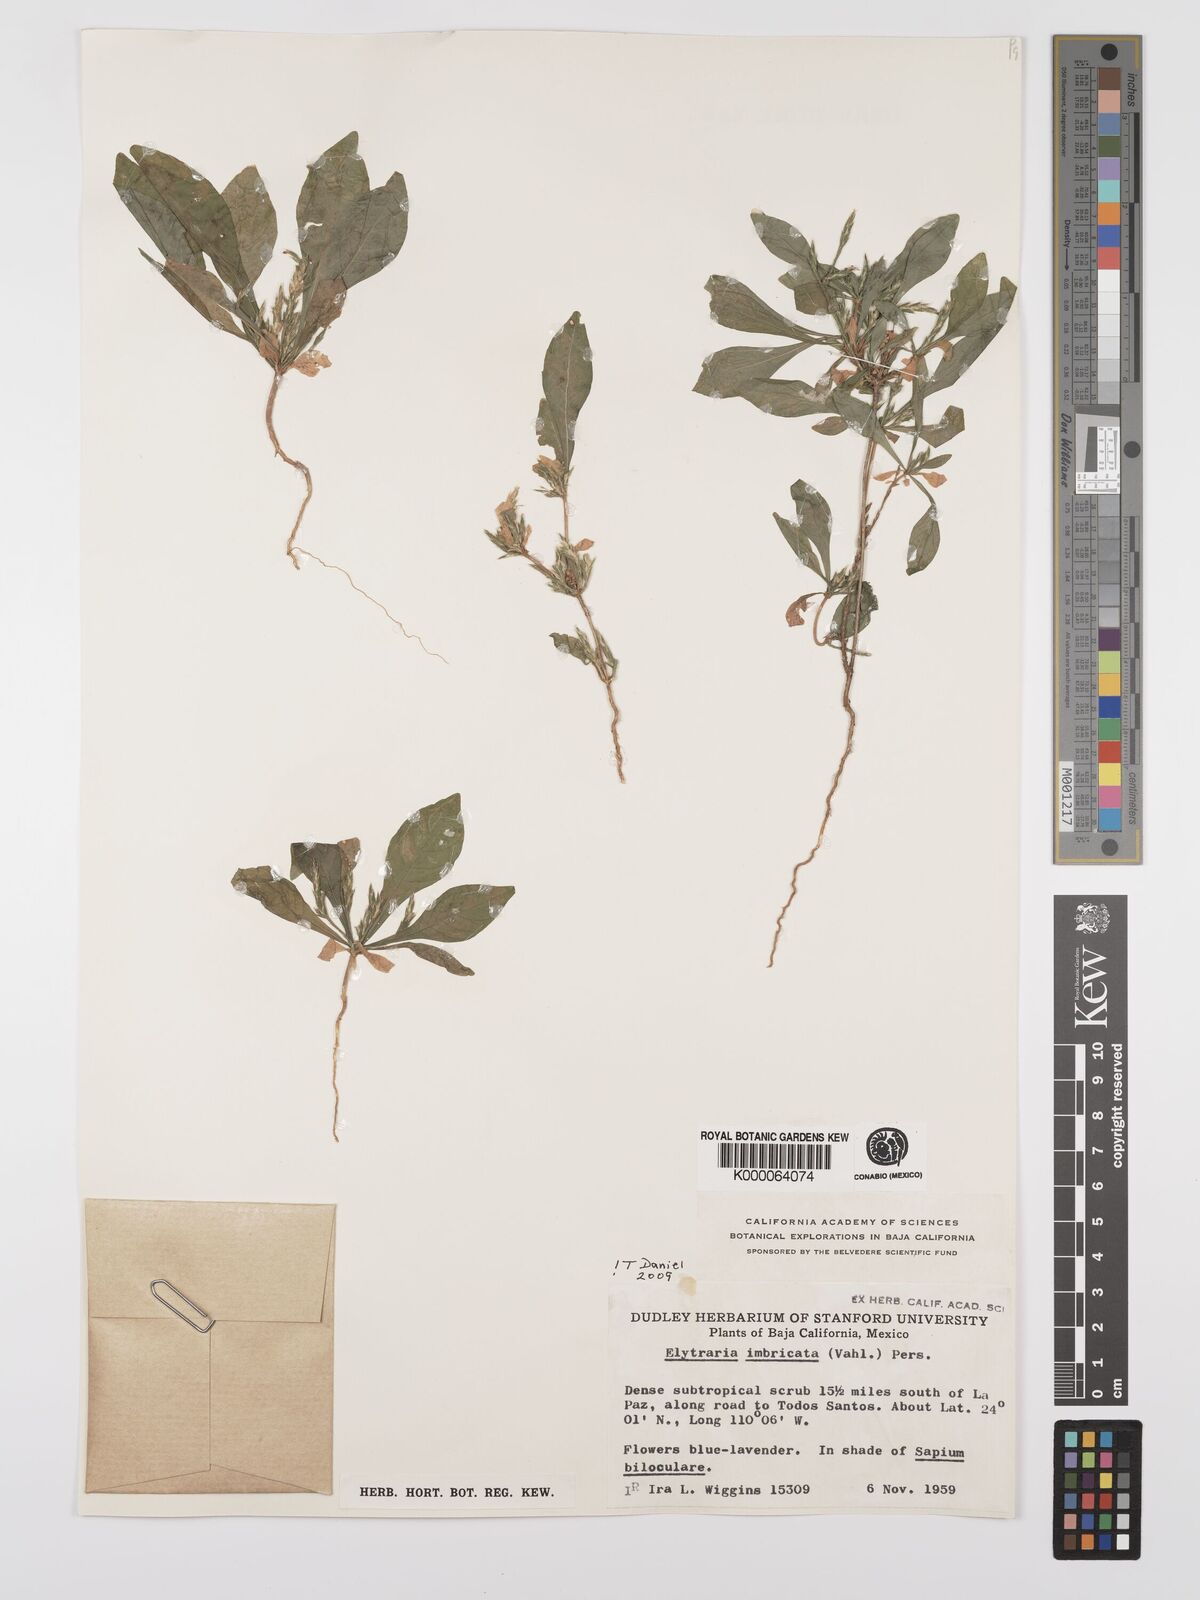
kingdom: Plantae
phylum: Tracheophyta
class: Magnoliopsida
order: Lamiales
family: Acanthaceae
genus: Elytraria
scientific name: Elytraria imbricata
